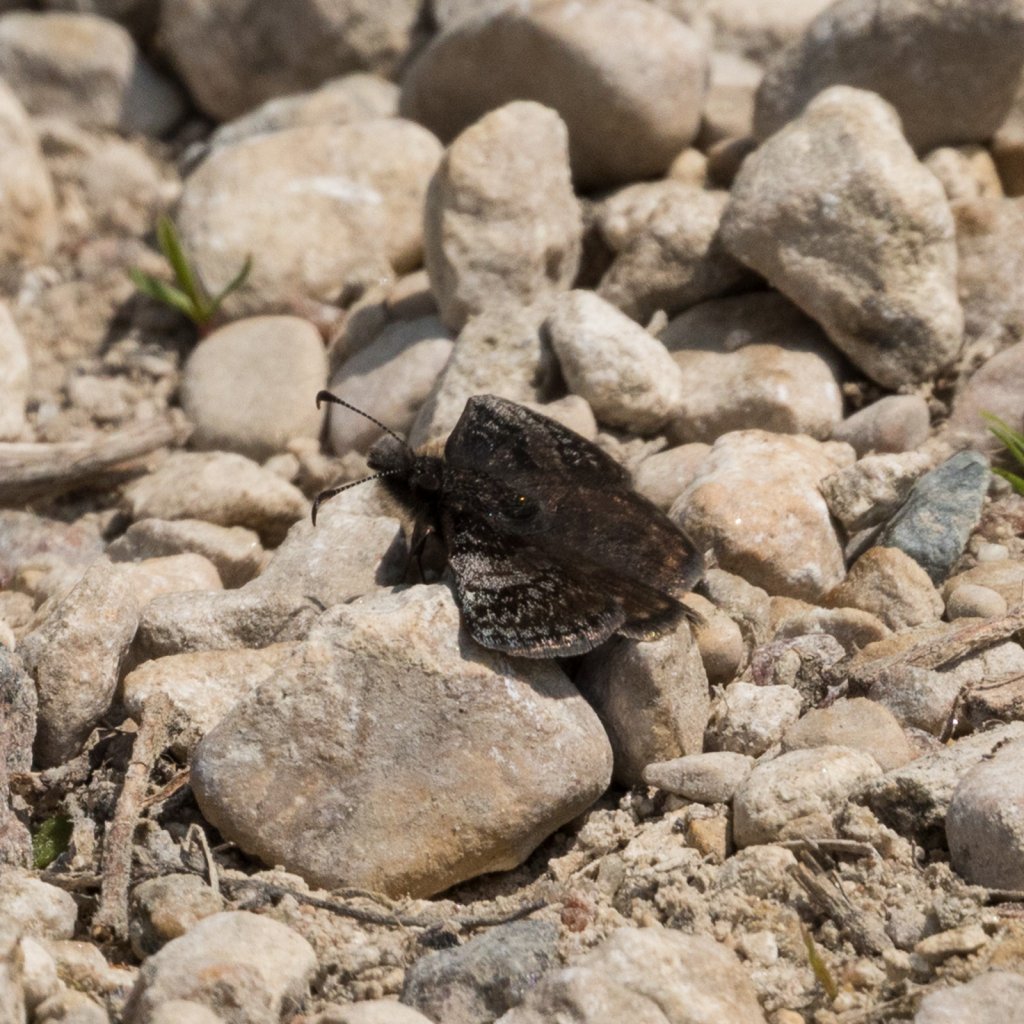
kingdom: Animalia
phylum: Arthropoda
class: Insecta
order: Lepidoptera
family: Hesperiidae
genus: Erynnis
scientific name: Erynnis icelus
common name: Dreamy Duskywing
